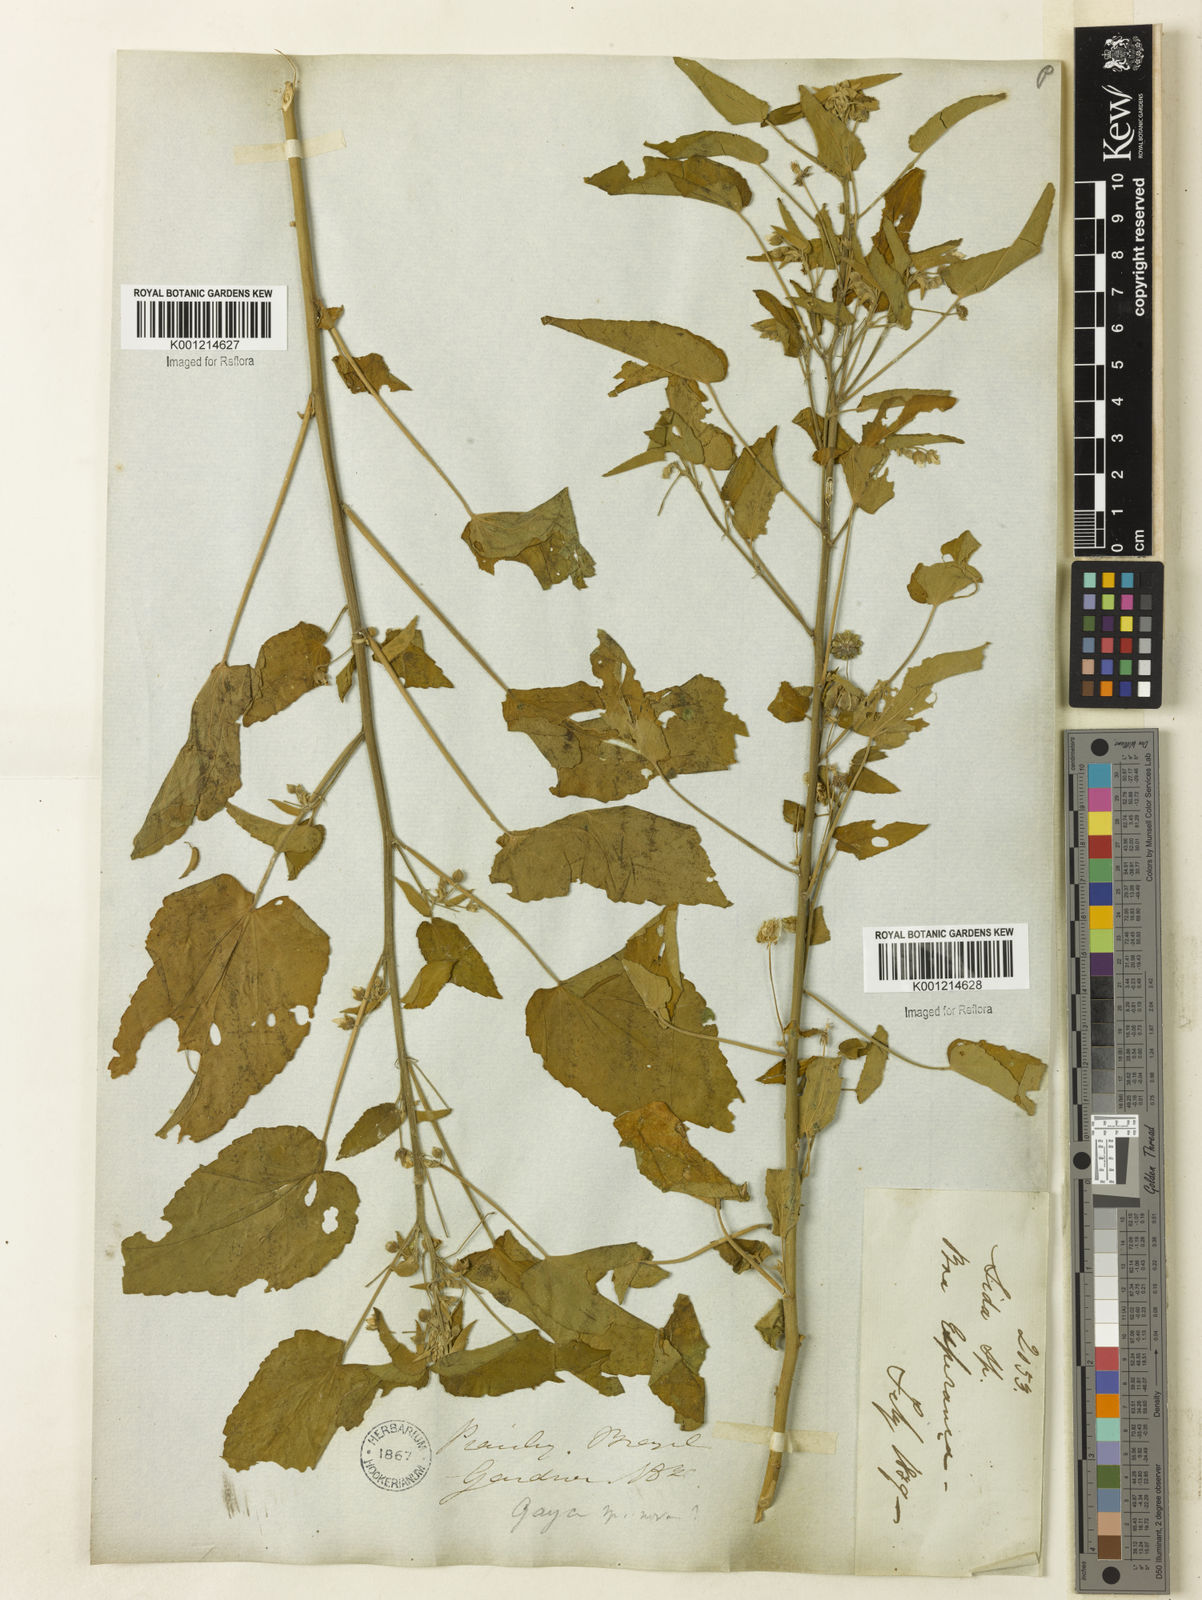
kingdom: Plantae
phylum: Tracheophyta
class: Magnoliopsida
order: Malvales
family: Malvaceae
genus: Gaya
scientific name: Gaya
